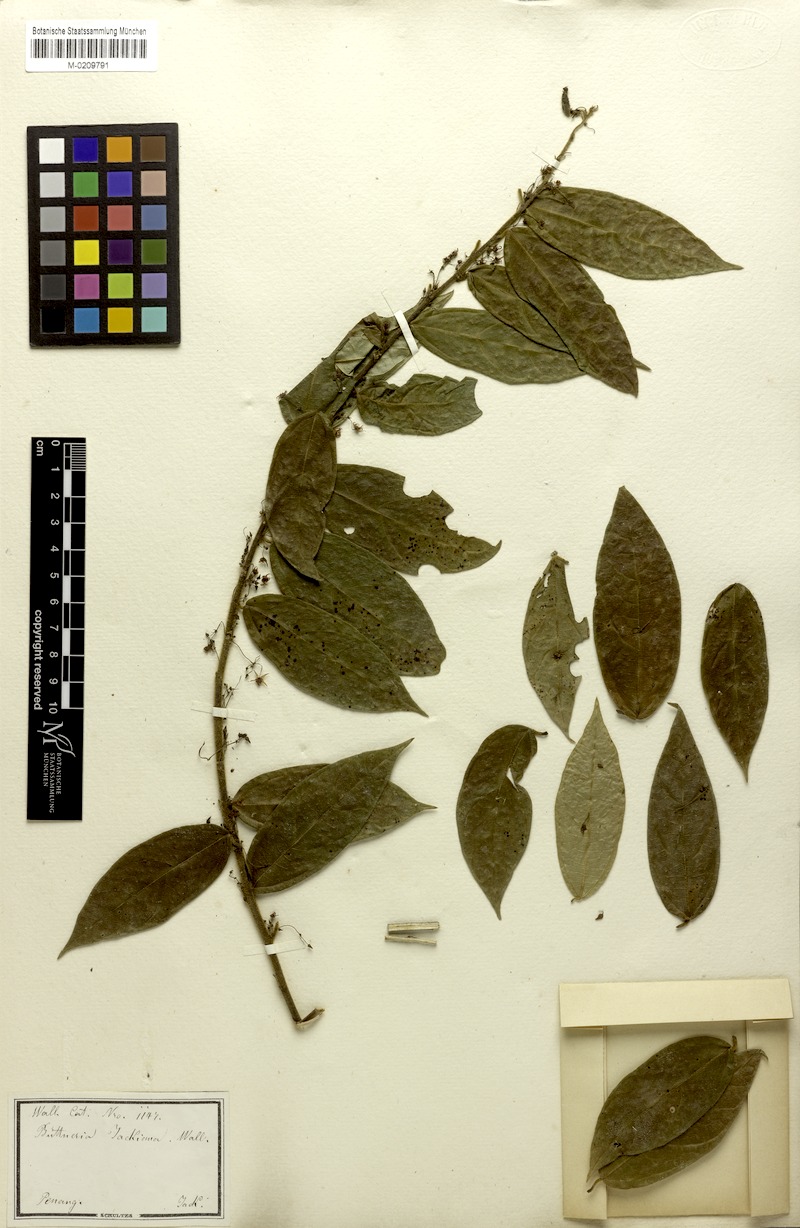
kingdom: Plantae
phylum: Tracheophyta
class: Magnoliopsida
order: Malvales
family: Malvaceae
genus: Byttneria
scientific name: Byttneria jackiana
